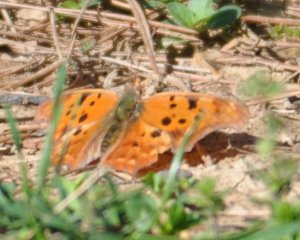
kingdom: Animalia
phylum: Arthropoda
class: Insecta
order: Lepidoptera
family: Nymphalidae
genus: Polygonia
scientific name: Polygonia interrogationis
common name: Question Mark
